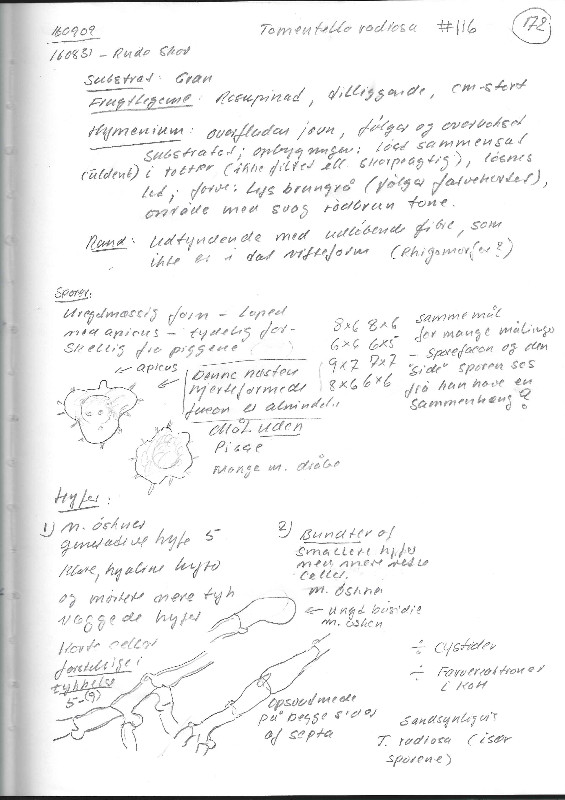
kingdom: Fungi
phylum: Basidiomycota
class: Agaricomycetes
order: Thelephorales
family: Thelephoraceae
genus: Thelephora
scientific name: Thelephora terrestris
